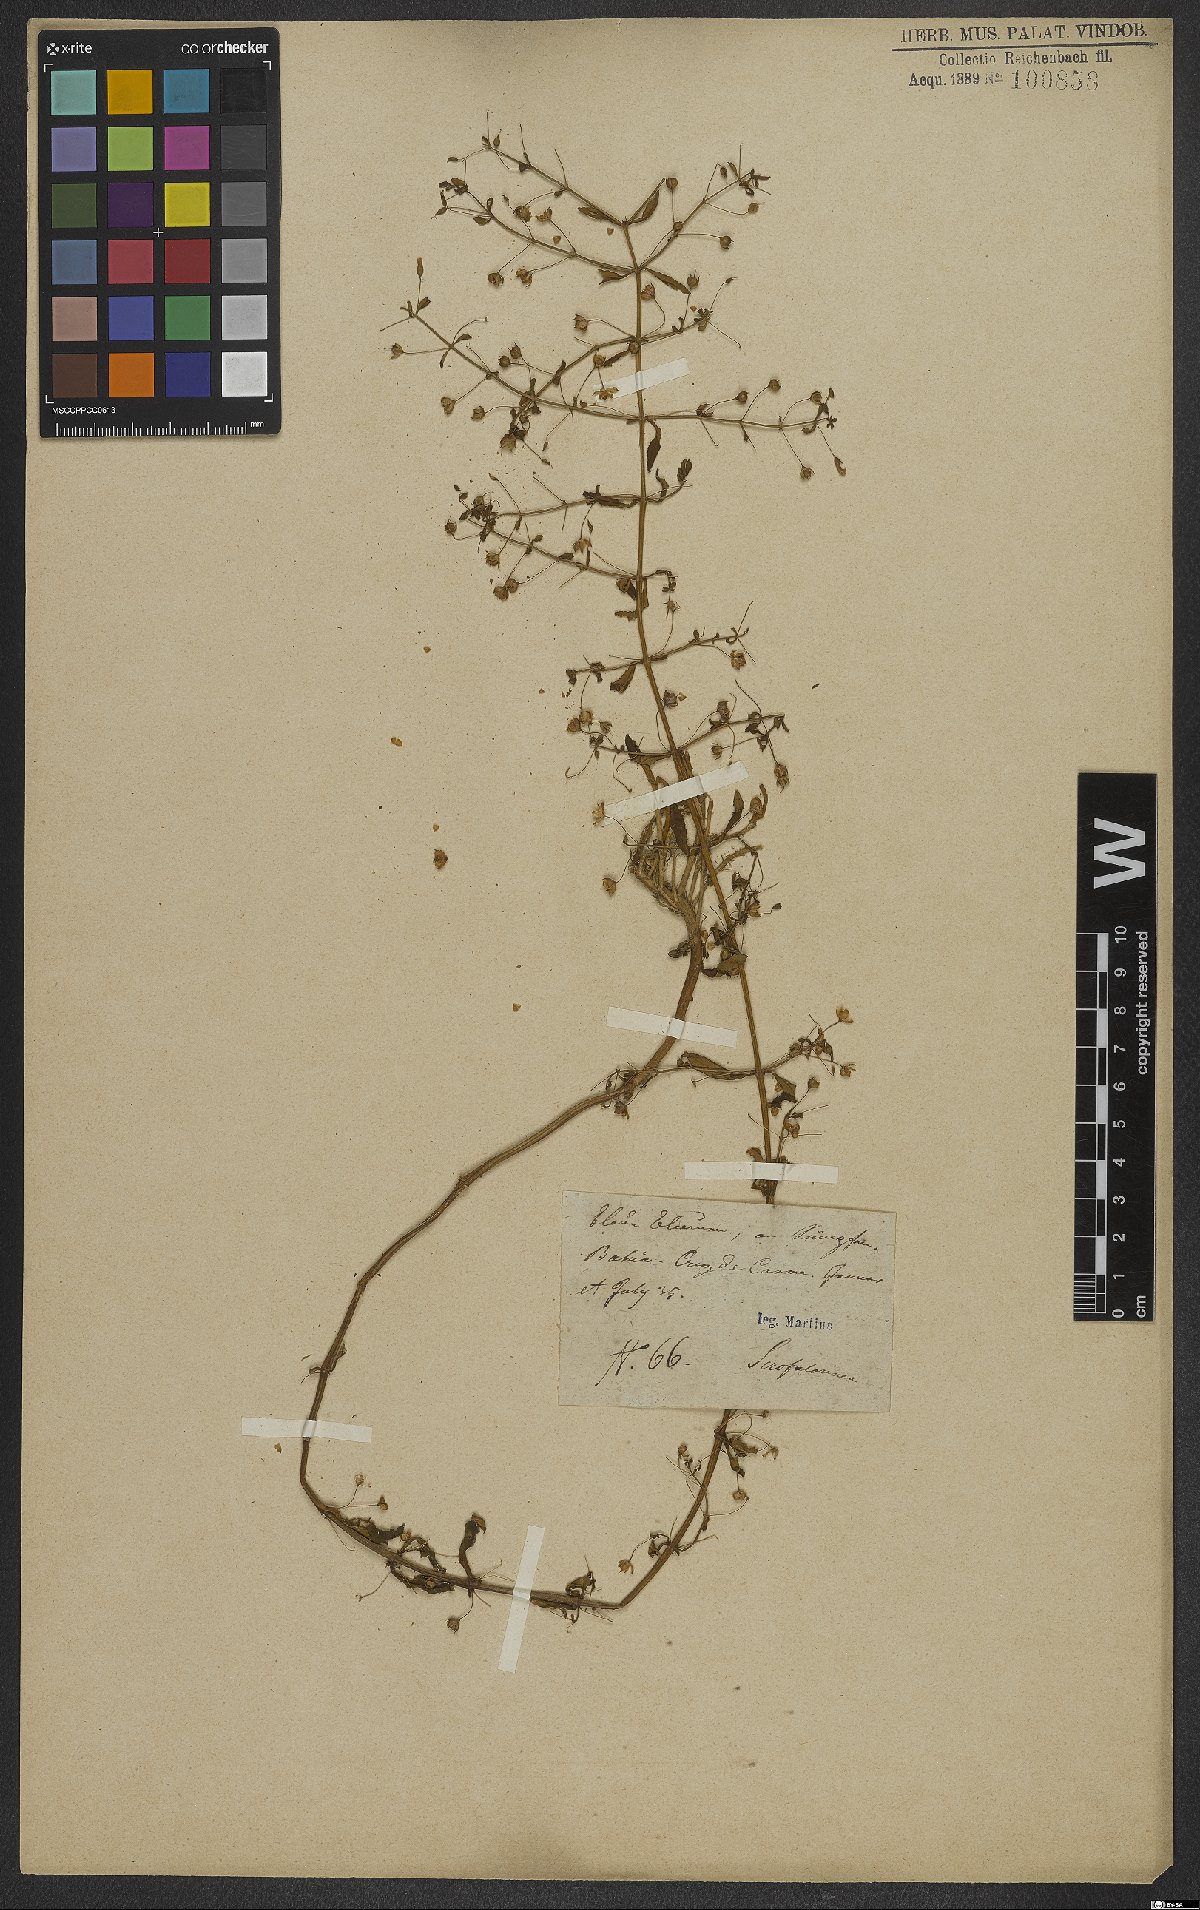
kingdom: Plantae
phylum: Tracheophyta
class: Magnoliopsida
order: Lamiales
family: Scrophulariaceae
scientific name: Scrophulariaceae
